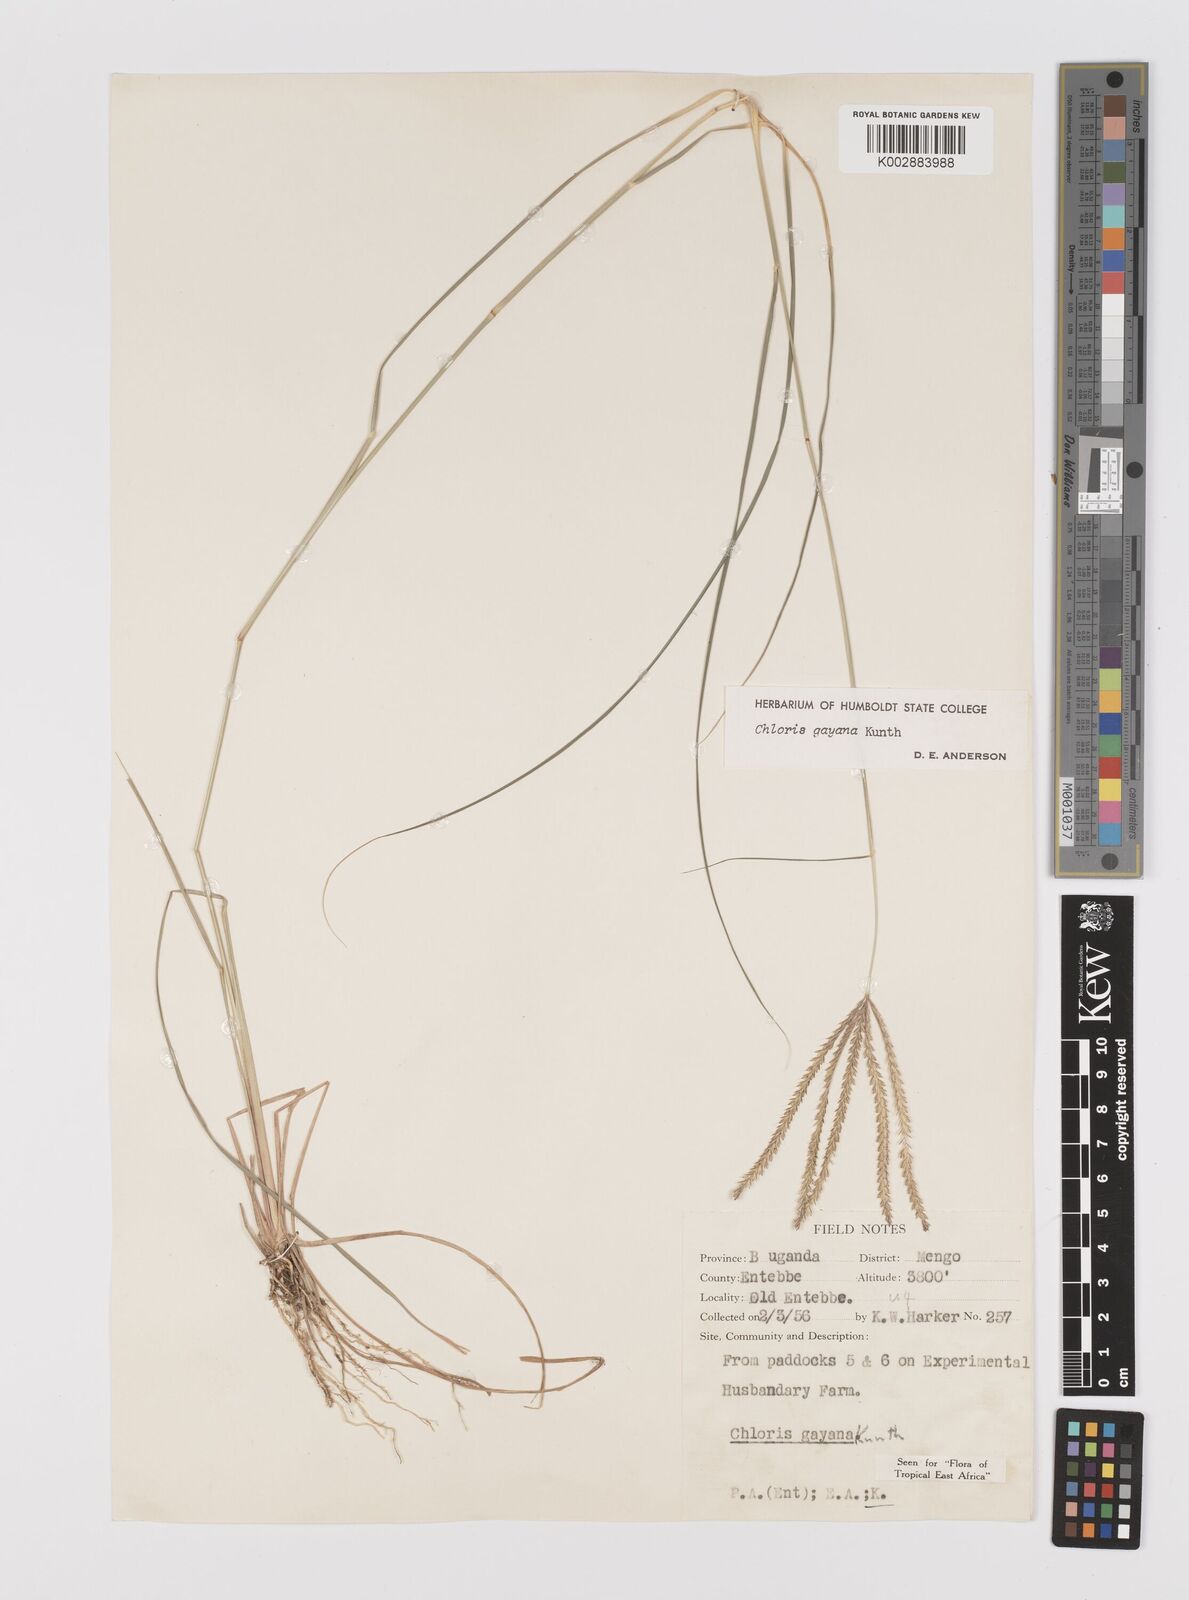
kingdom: Plantae
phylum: Tracheophyta
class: Liliopsida
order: Poales
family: Poaceae
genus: Chloris
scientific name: Chloris gayana
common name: Rhodes grass
